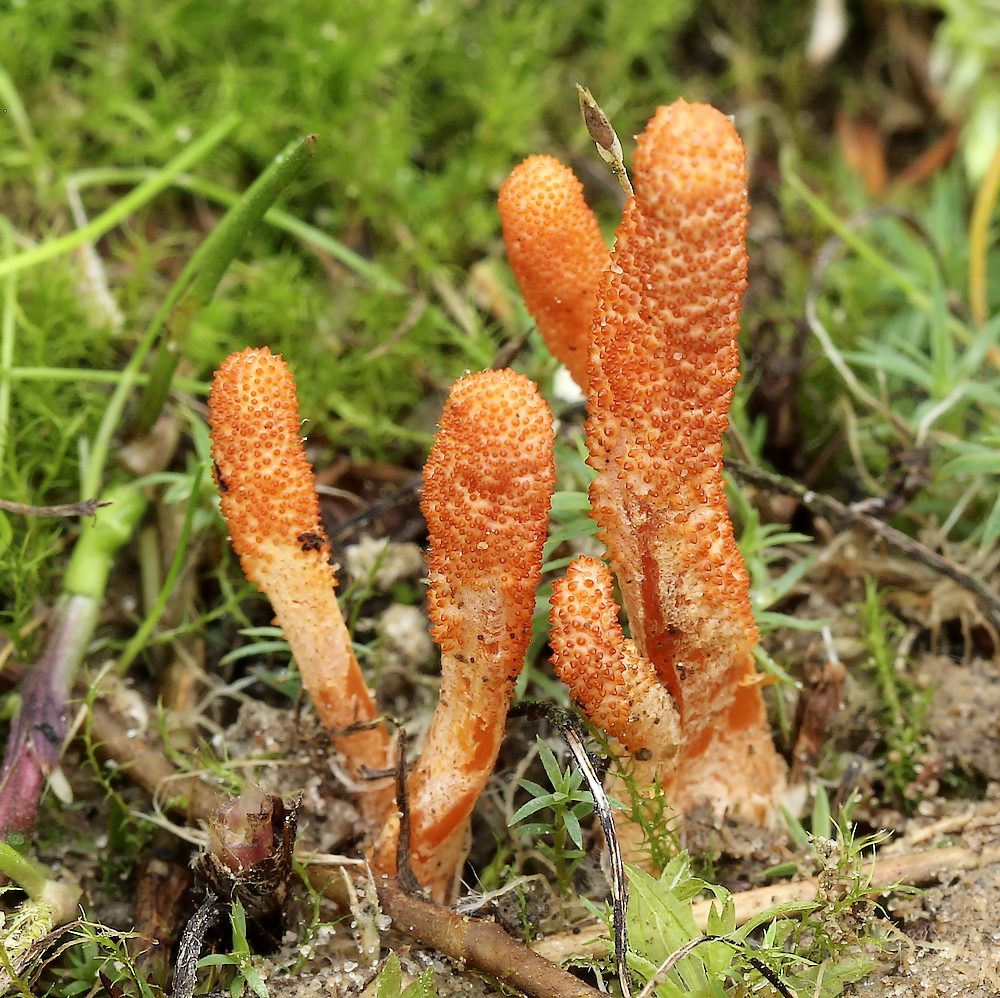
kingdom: Fungi
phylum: Ascomycota
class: Sordariomycetes
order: Hypocreales
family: Cordycipitaceae
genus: Cordyceps
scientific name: Cordyceps militaris
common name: puppe-snyltekølle
